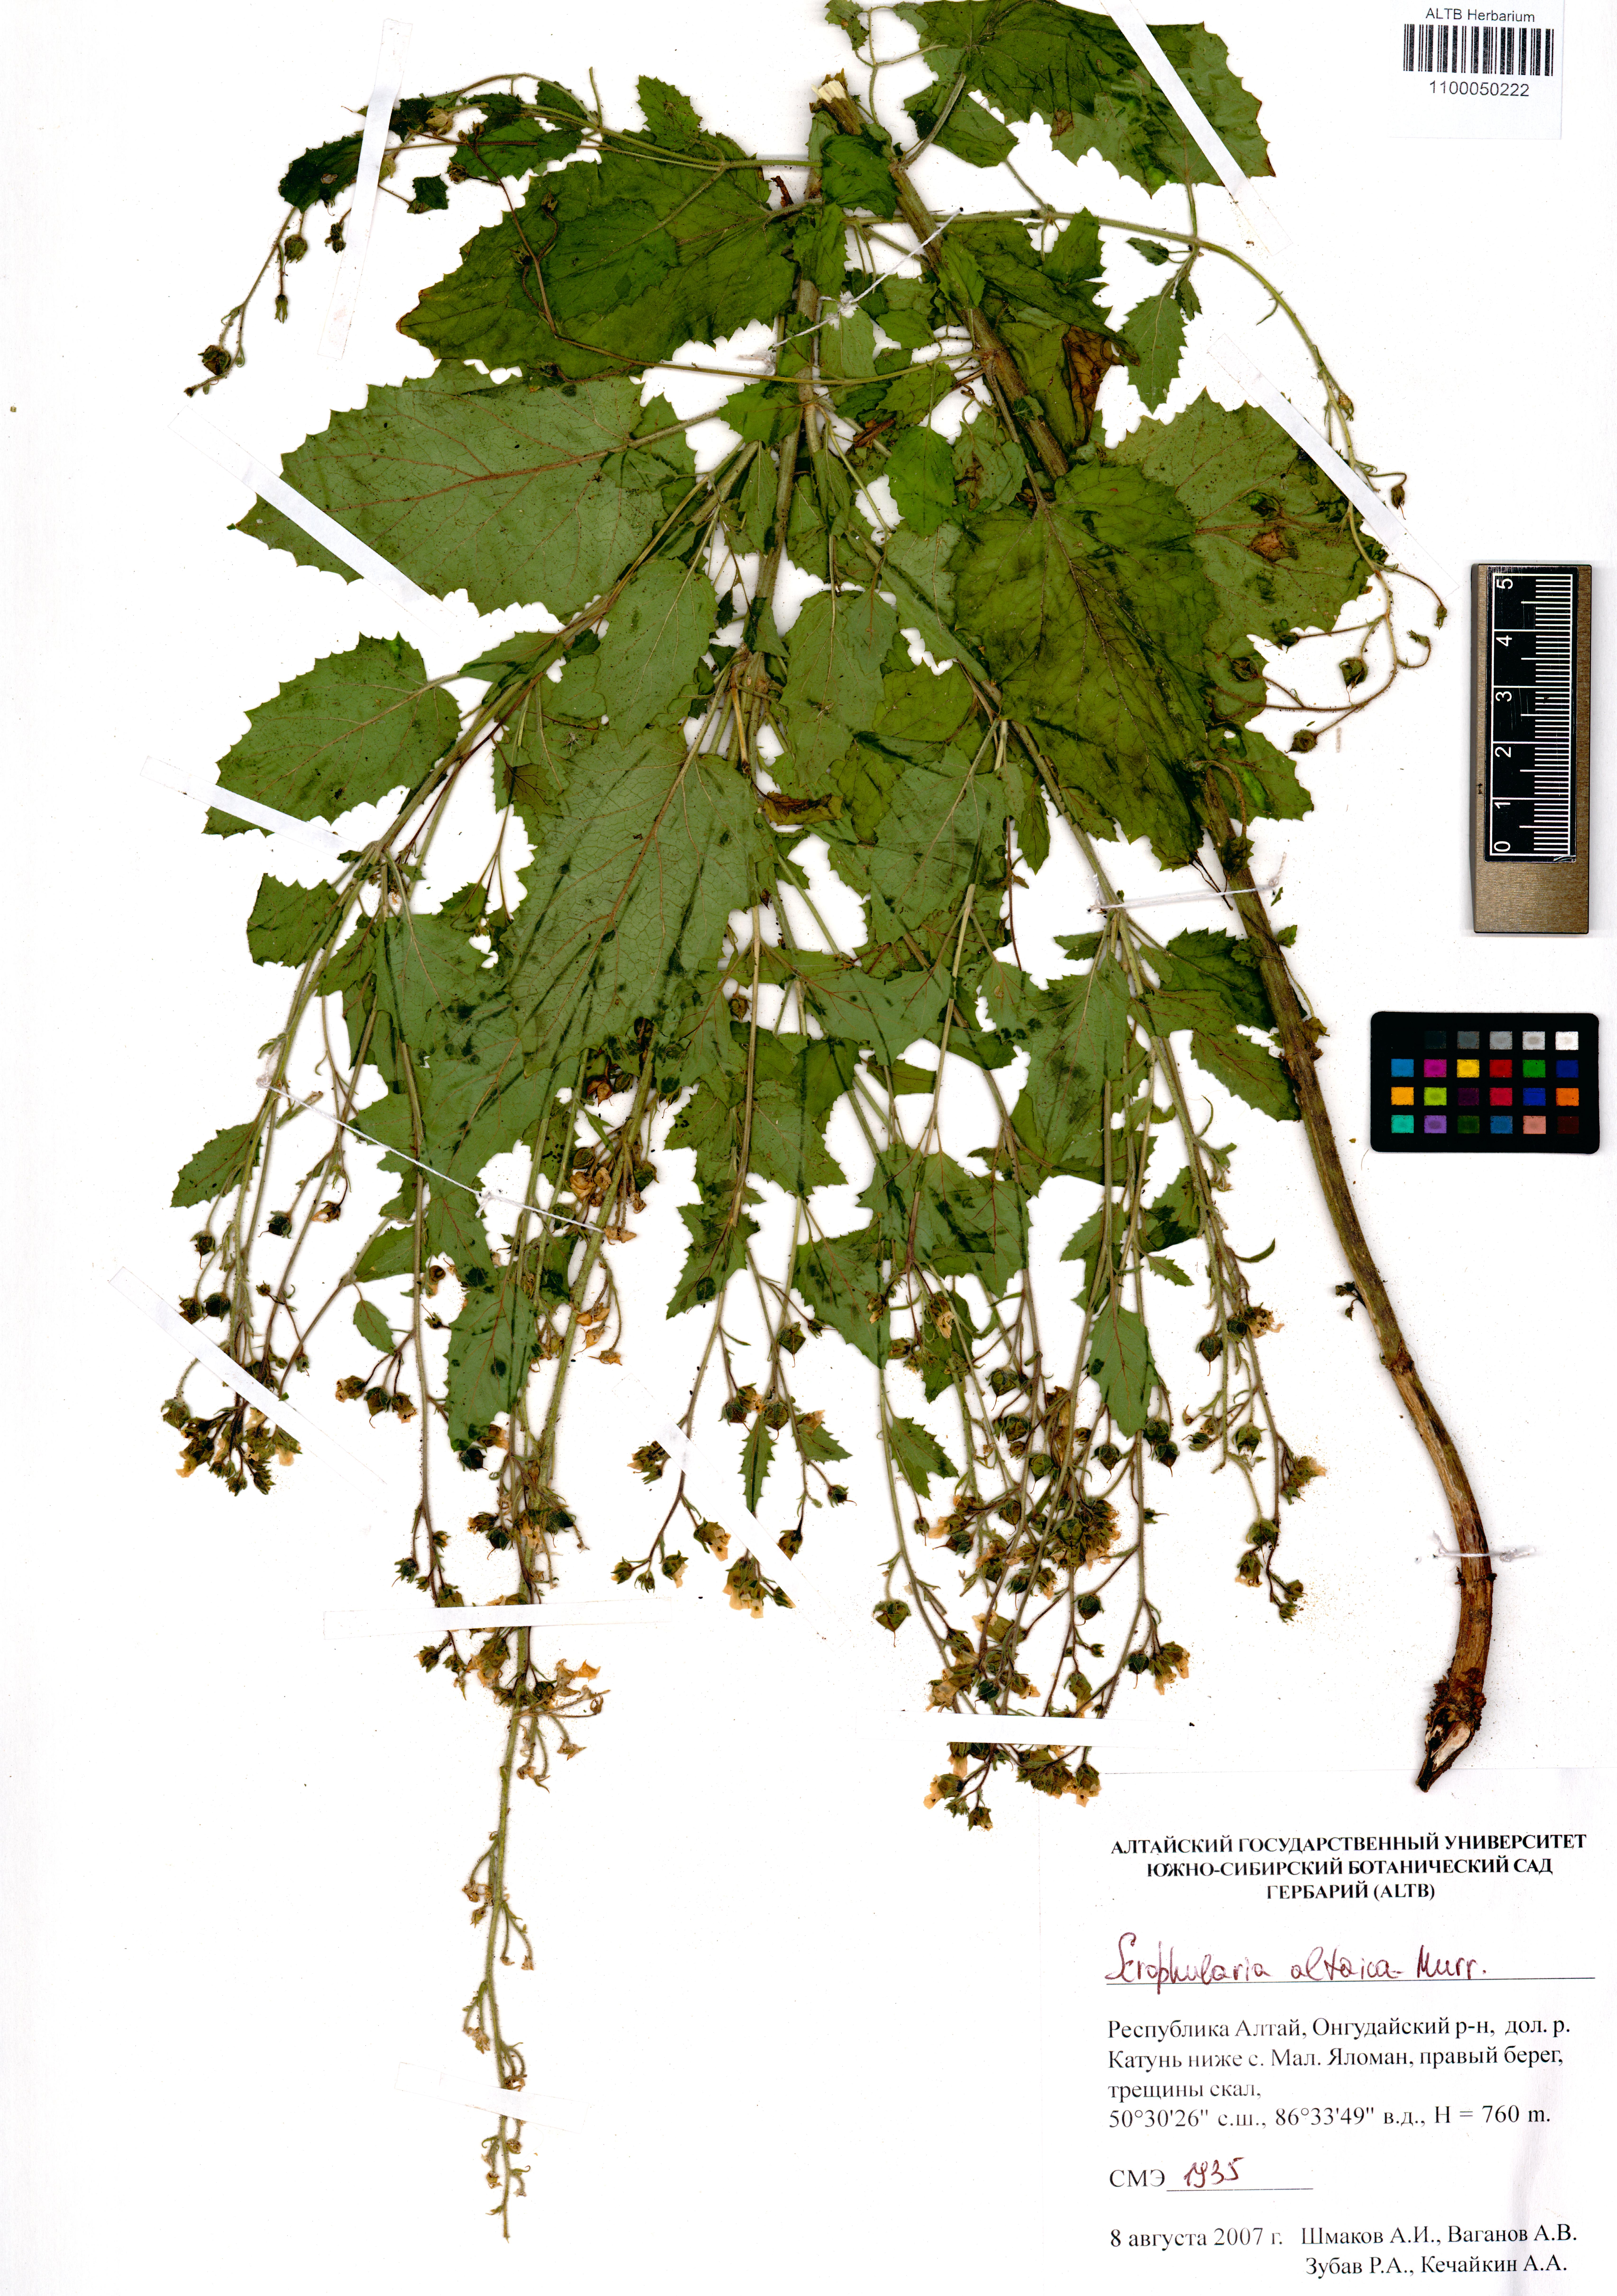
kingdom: Plantae
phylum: Tracheophyta
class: Magnoliopsida
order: Lamiales
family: Scrophulariaceae
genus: Scrophularia
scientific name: Scrophularia altaica
